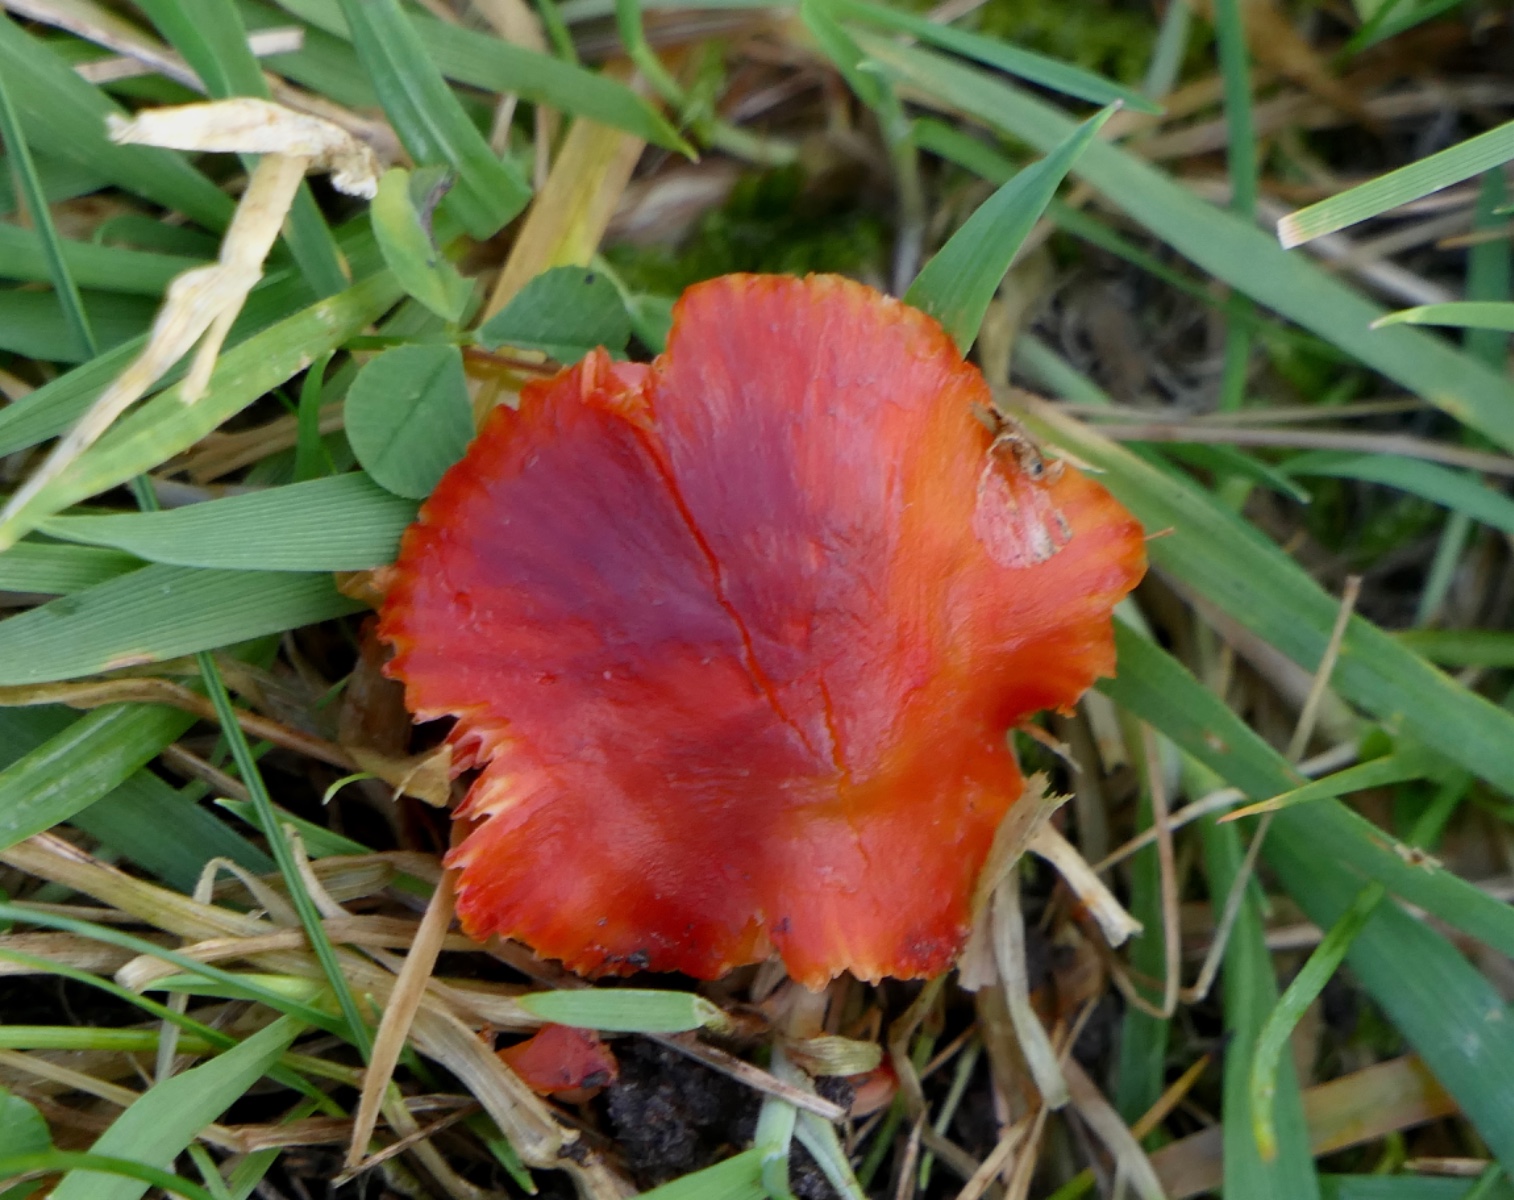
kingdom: Fungi
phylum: Basidiomycota
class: Agaricomycetes
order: Agaricales
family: Hygrophoraceae
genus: Hygrocybe
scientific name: Hygrocybe phaeococcinea
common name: sortdugget vokshat
